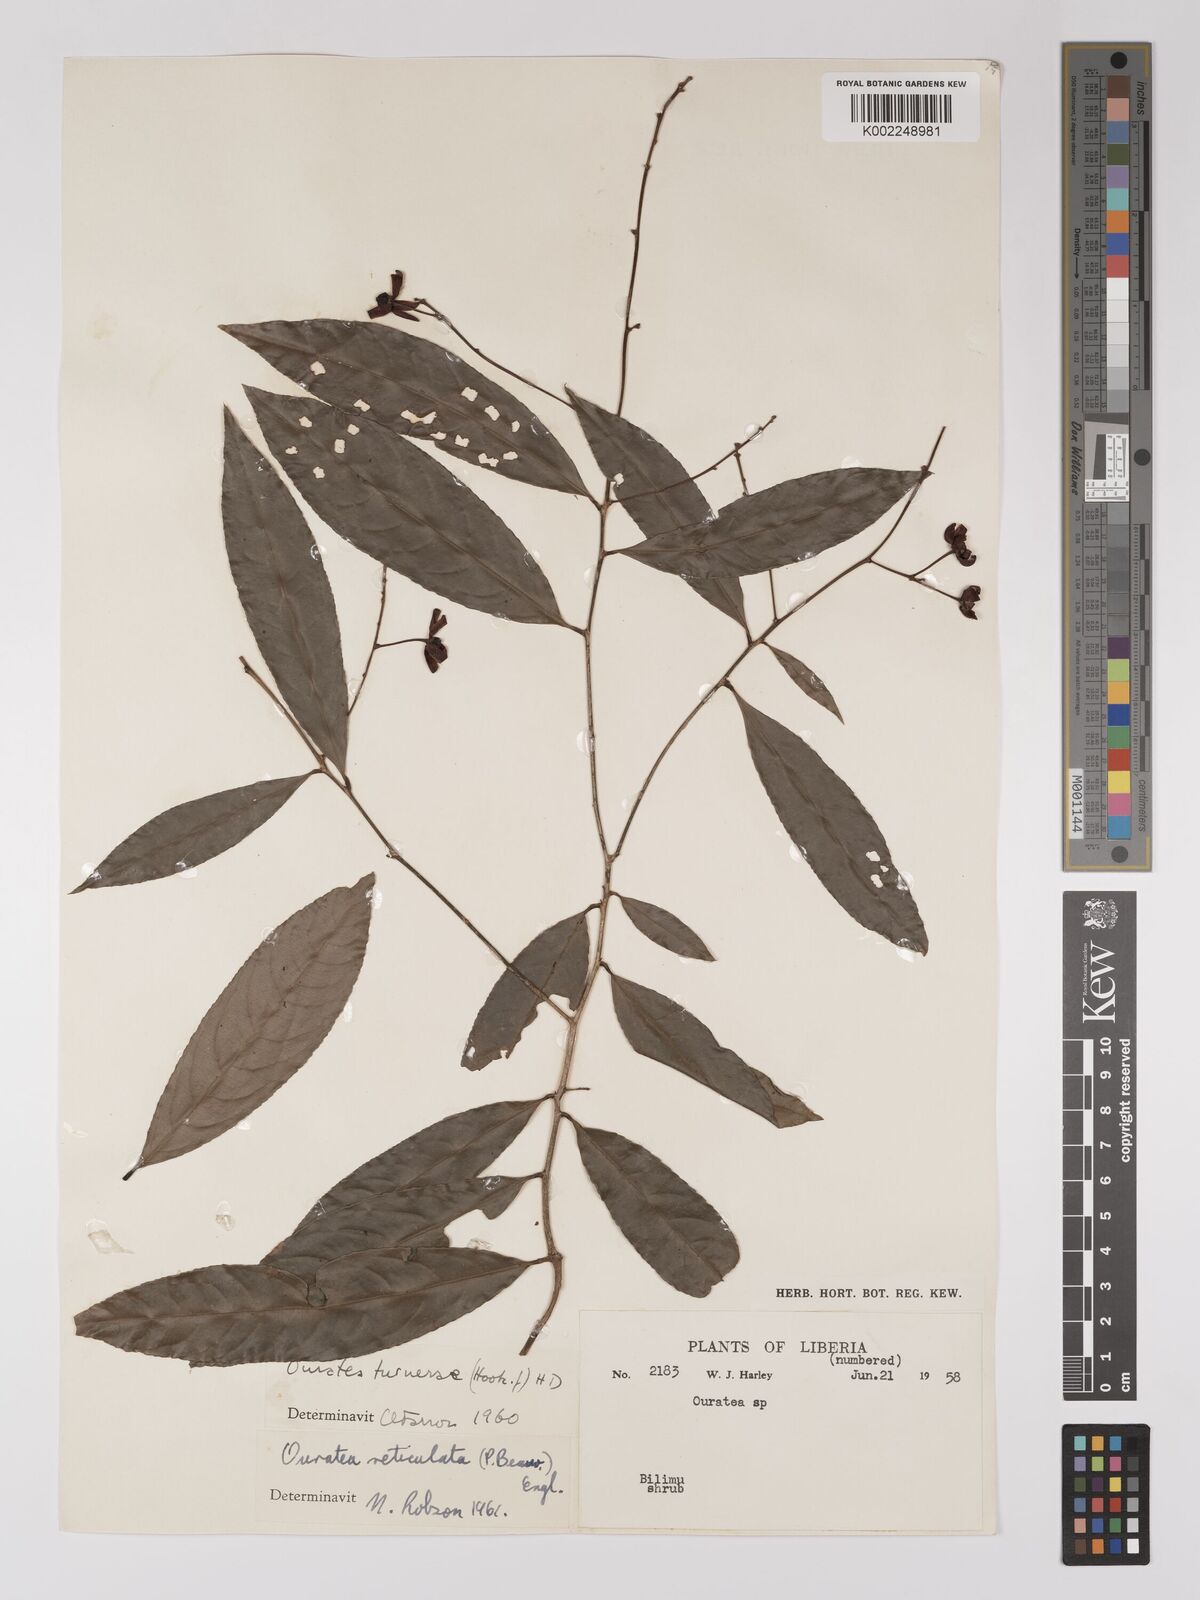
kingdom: Plantae
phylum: Tracheophyta
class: Magnoliopsida
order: Malpighiales
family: Ochnaceae
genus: Campylospermum
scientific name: Campylospermum reticulatum
